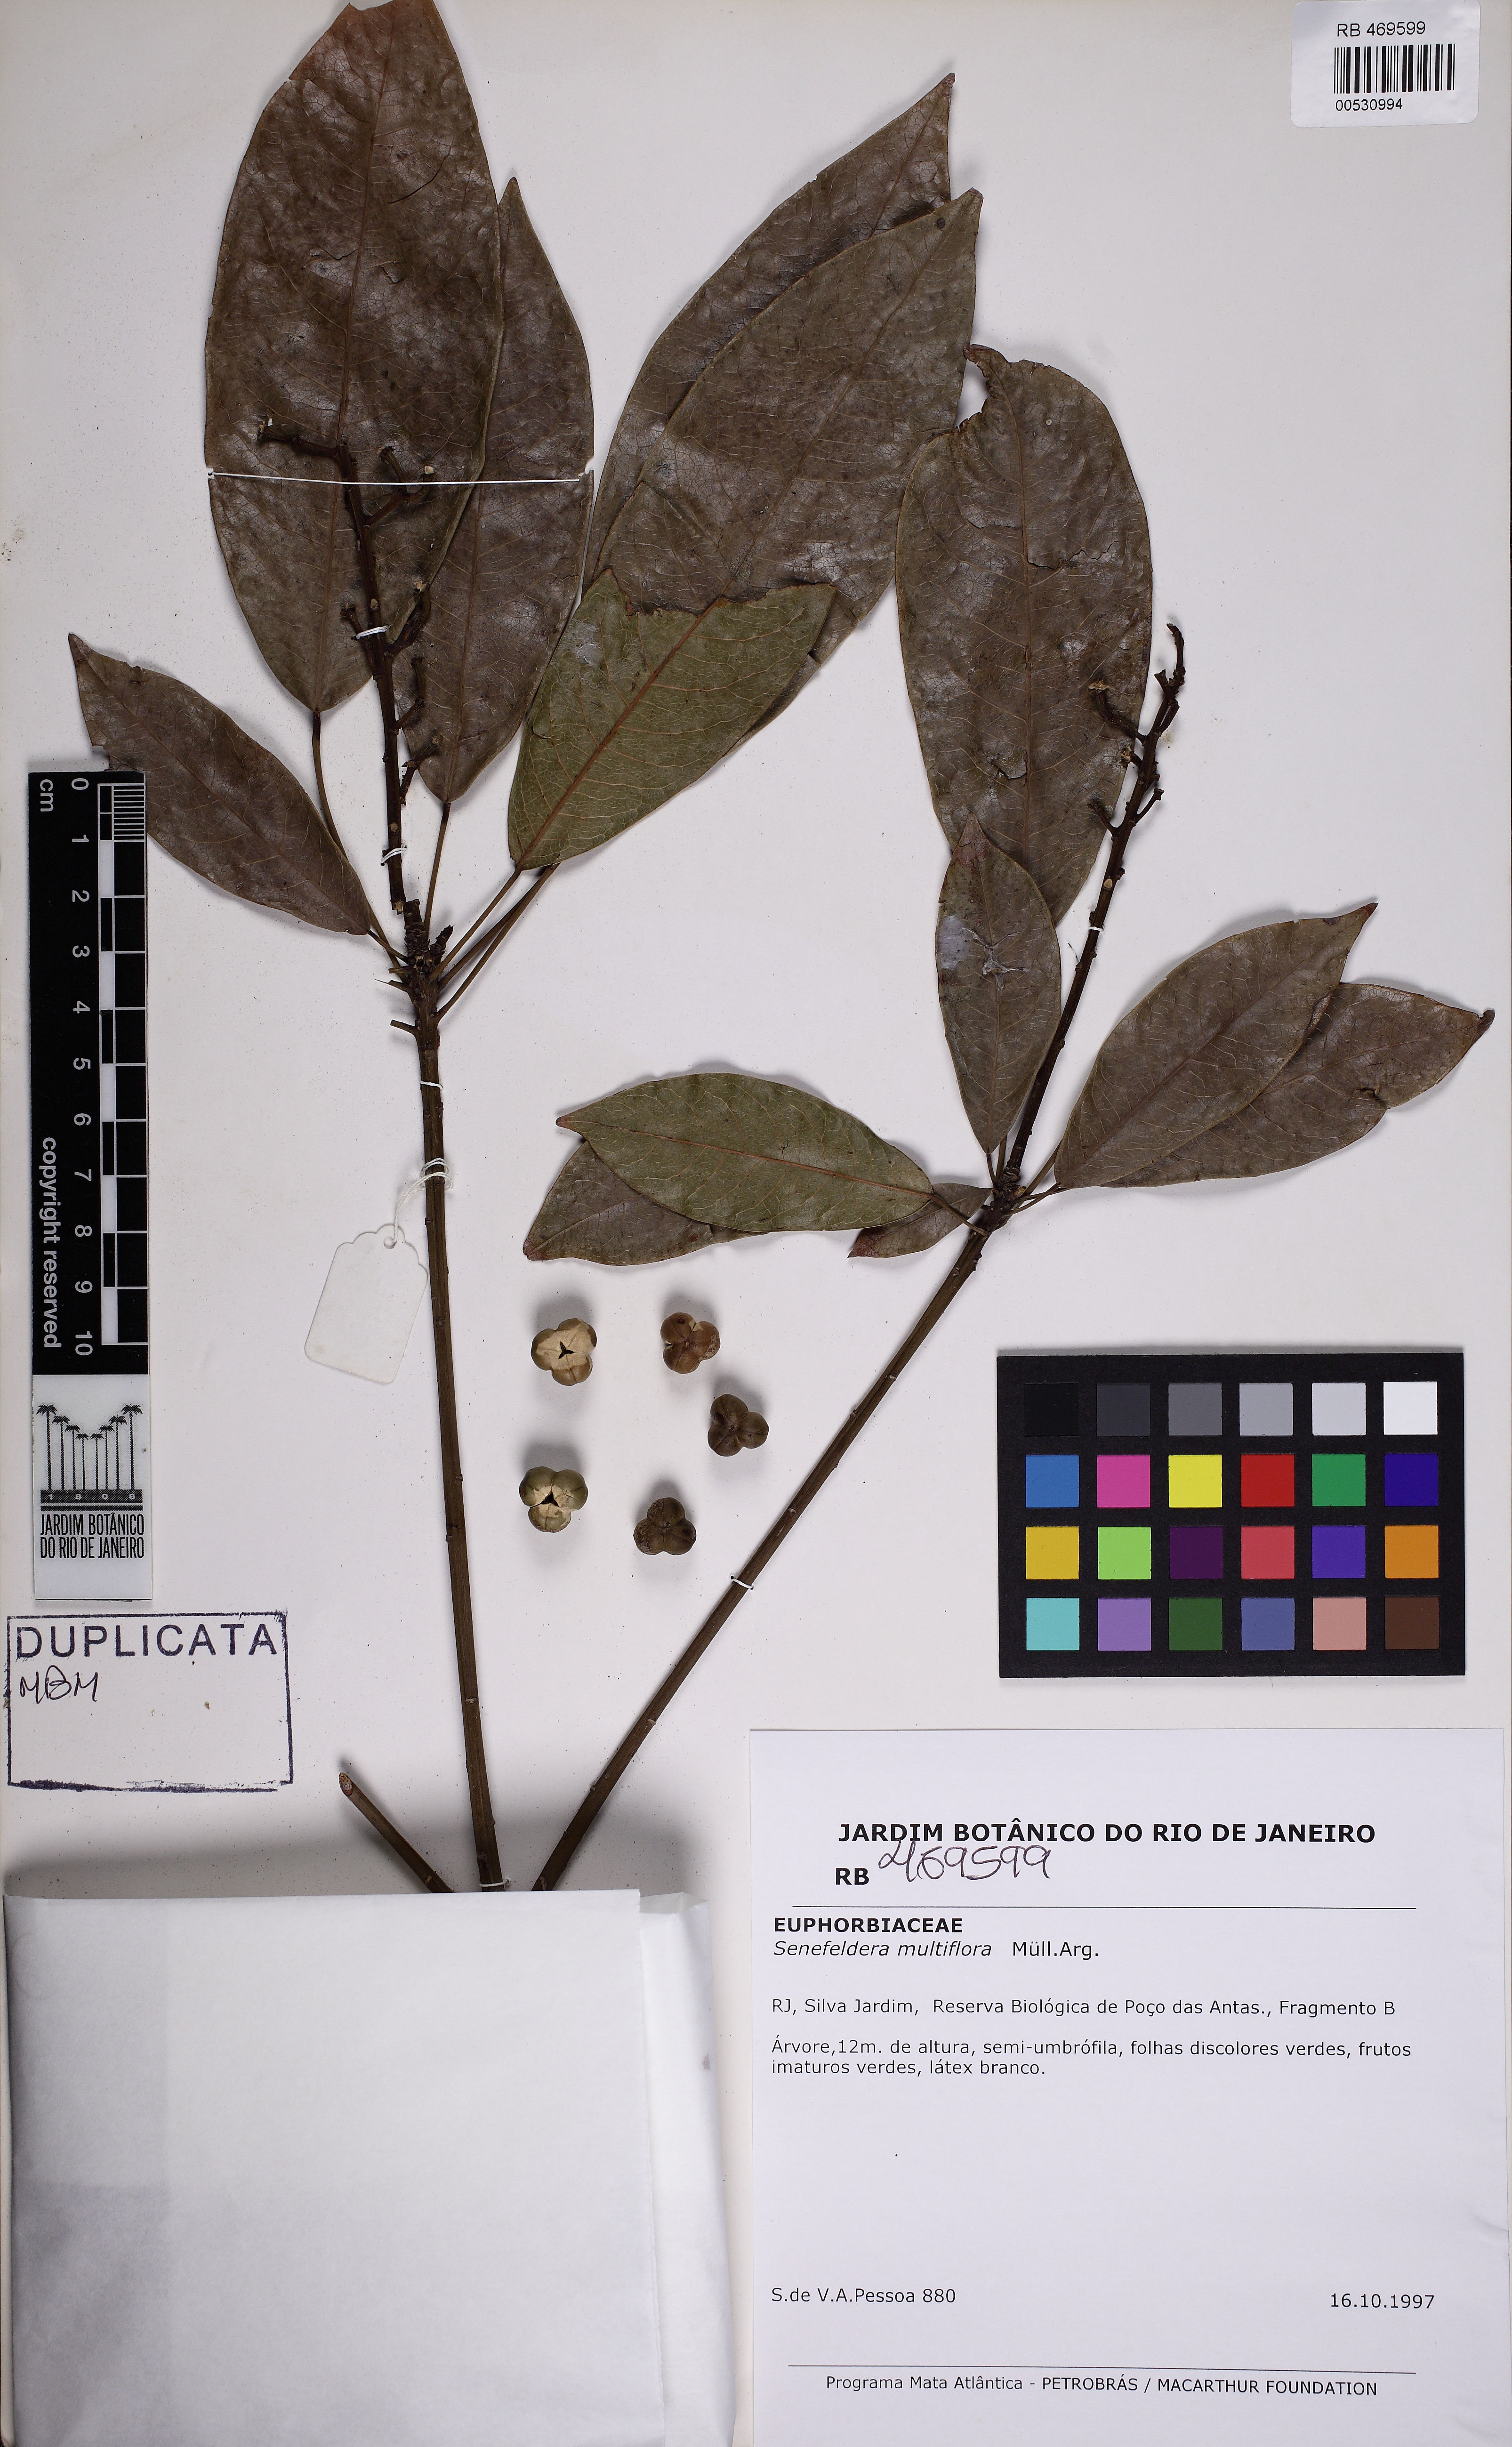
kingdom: Plantae
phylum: Tracheophyta
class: Magnoliopsida
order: Malpighiales
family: Euphorbiaceae
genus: Senefeldera
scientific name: Senefeldera verticillata
